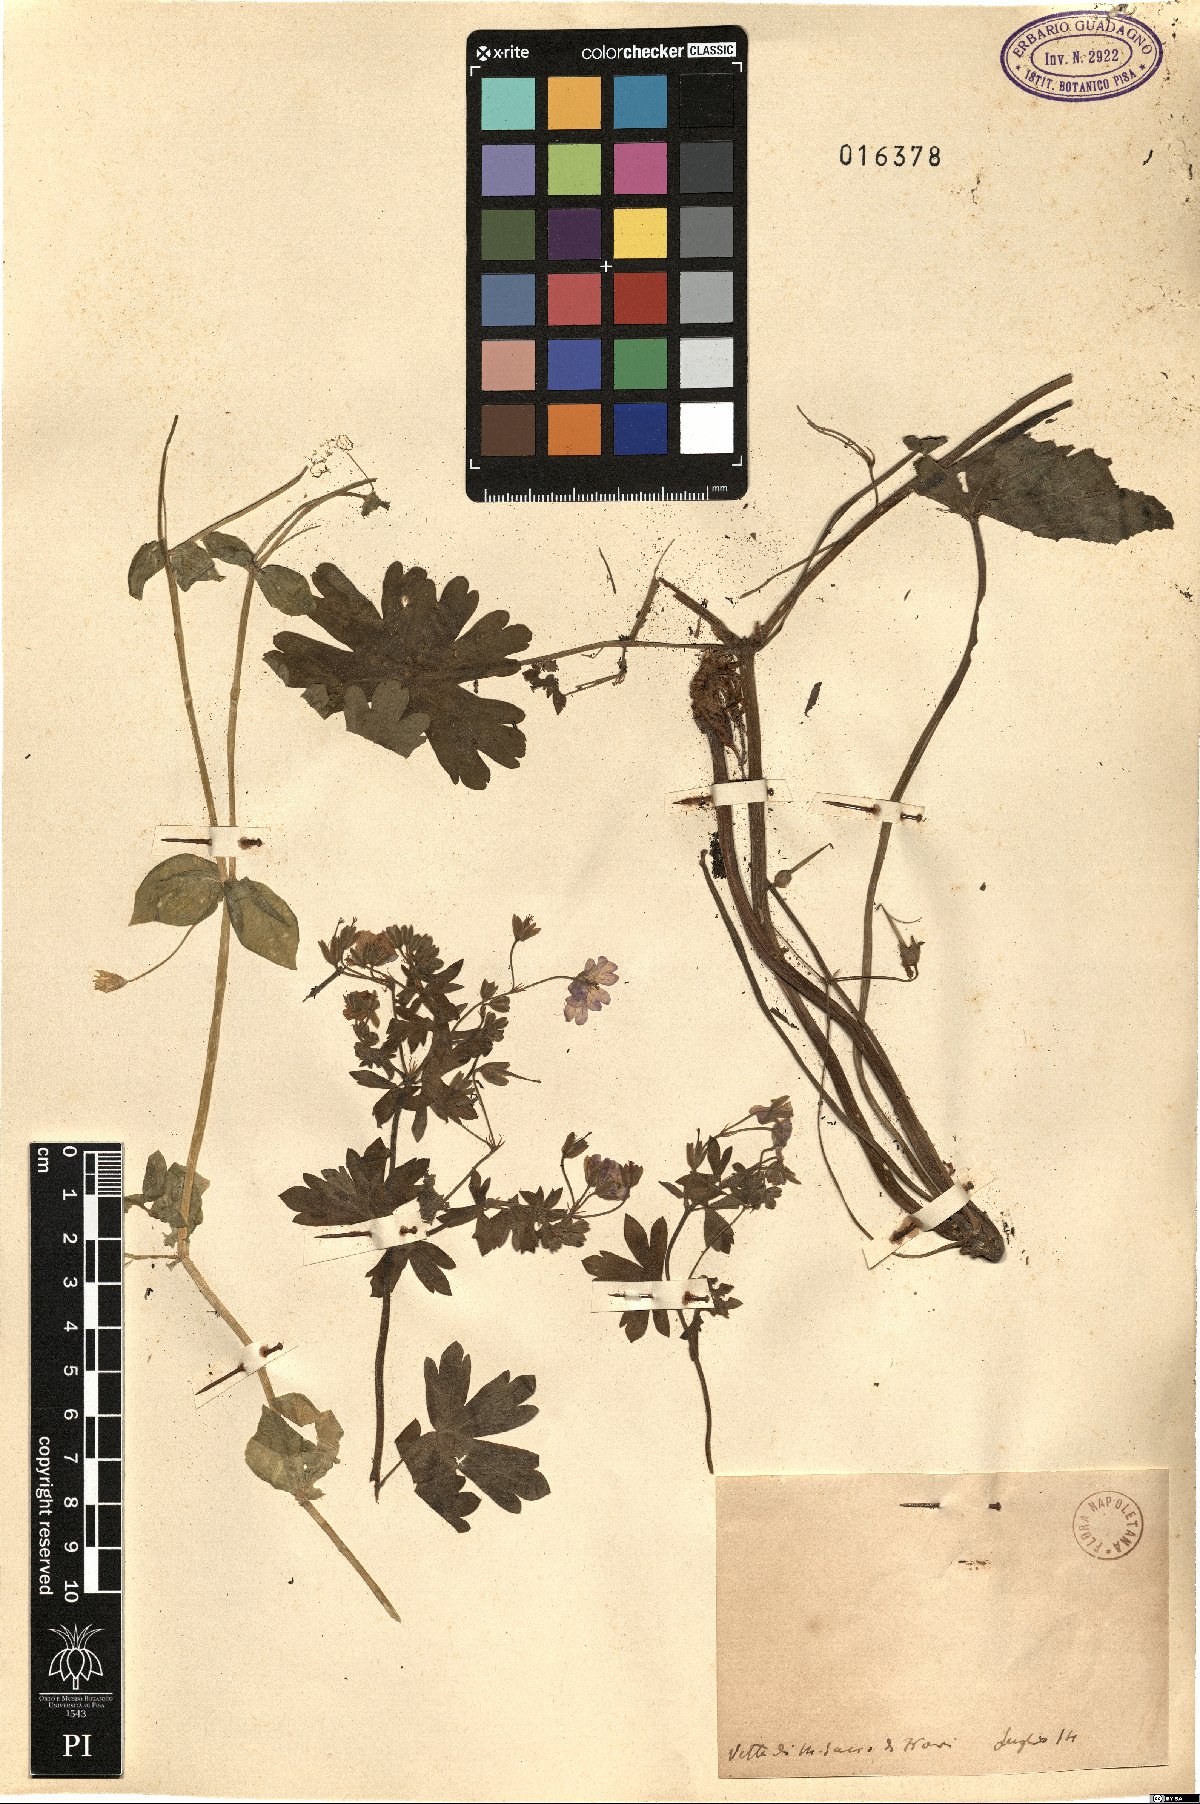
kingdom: Plantae
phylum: Tracheophyta
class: Magnoliopsida
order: Geraniales
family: Geraniaceae
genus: Geranium
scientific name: Geranium
